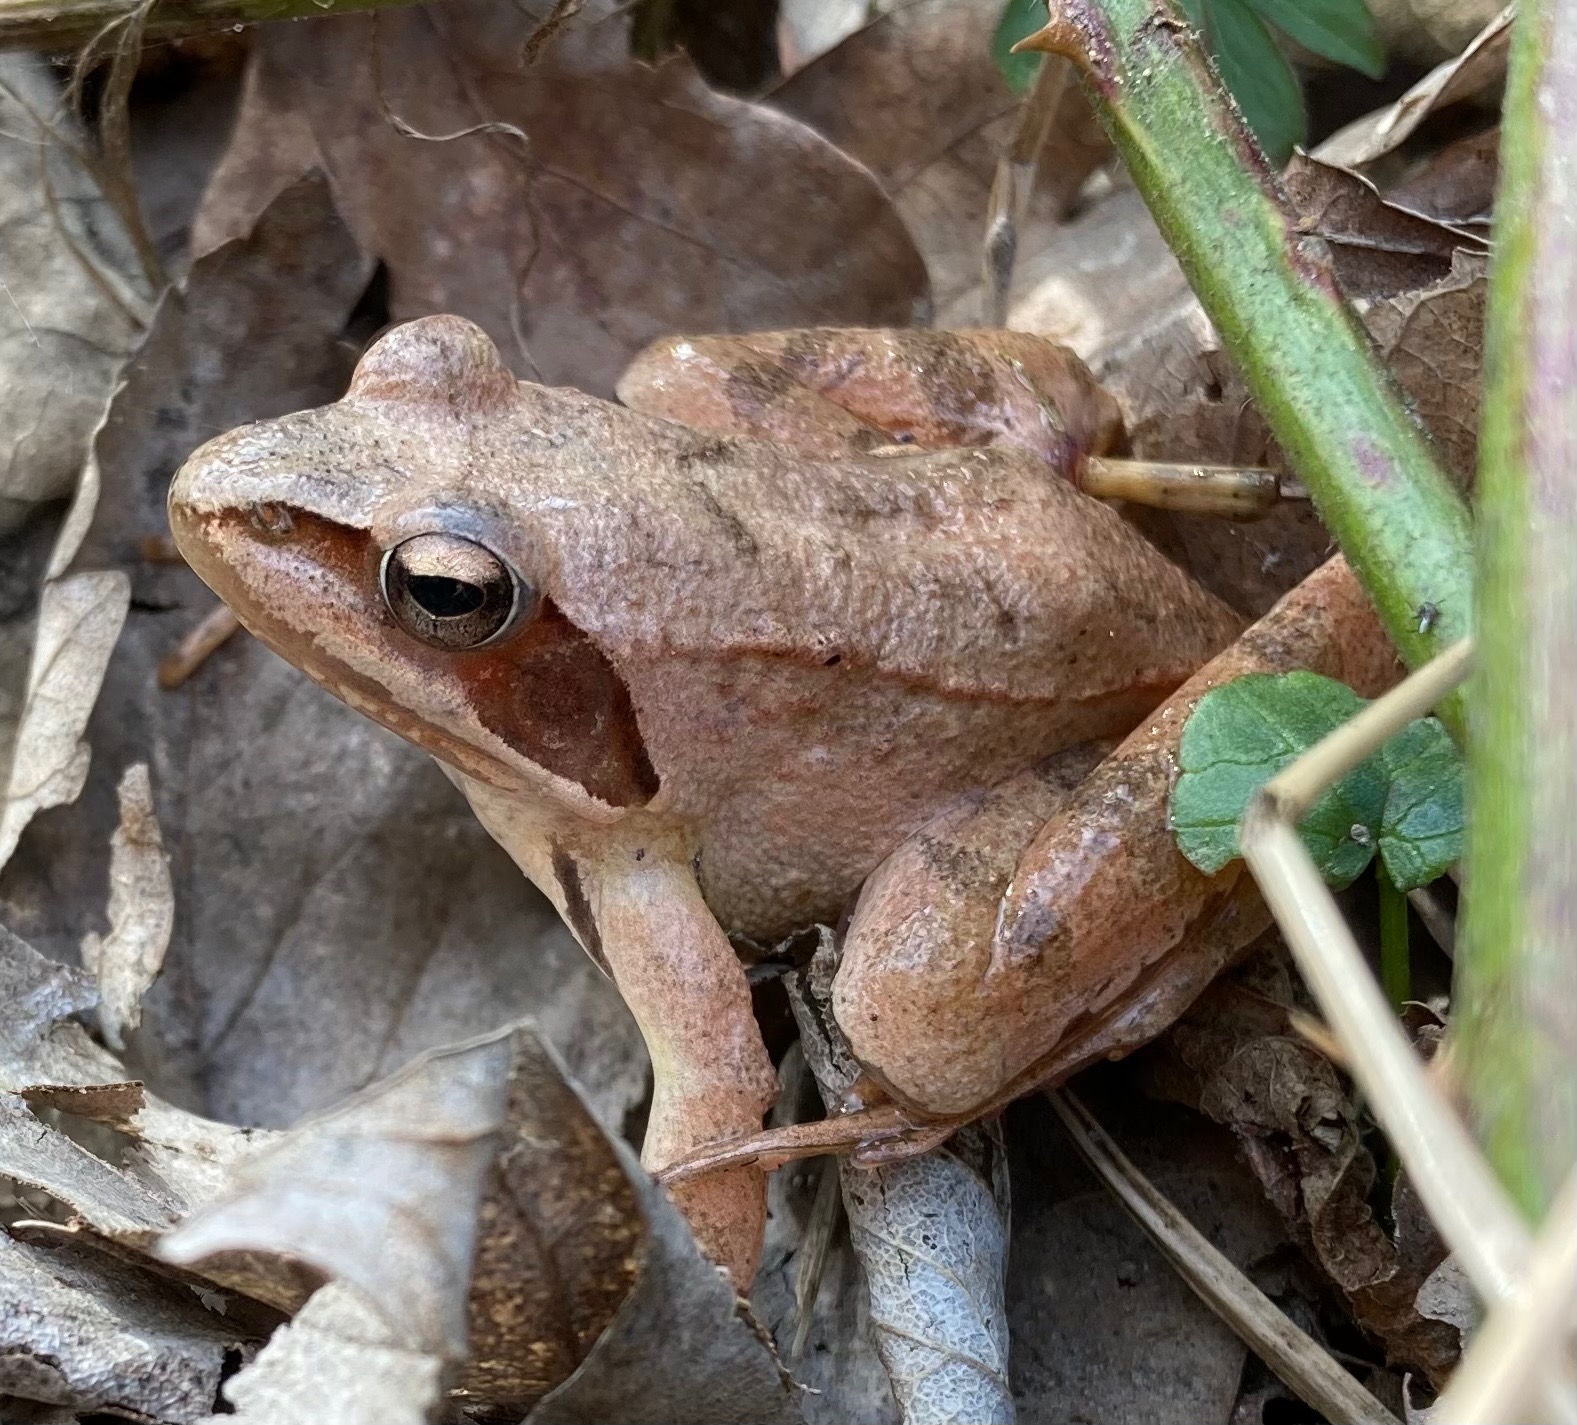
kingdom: Animalia
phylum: Chordata
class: Amphibia
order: Anura
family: Ranidae
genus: Rana
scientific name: Rana dalmatina
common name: Springfrø
